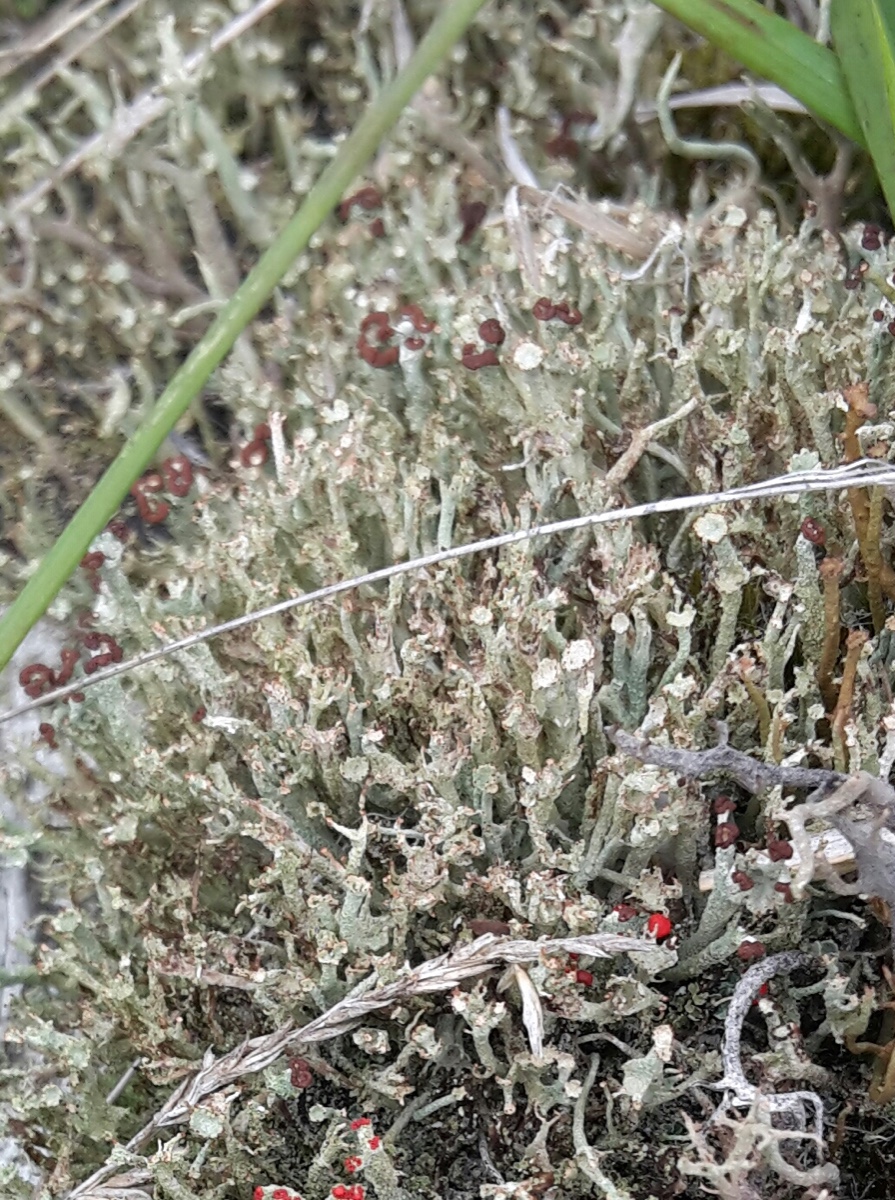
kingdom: Fungi
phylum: Ascomycota
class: Lecanoromycetes
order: Lecanorales
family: Cladoniaceae
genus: Cladonia
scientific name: Cladonia gracilis
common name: slank bægerlav
